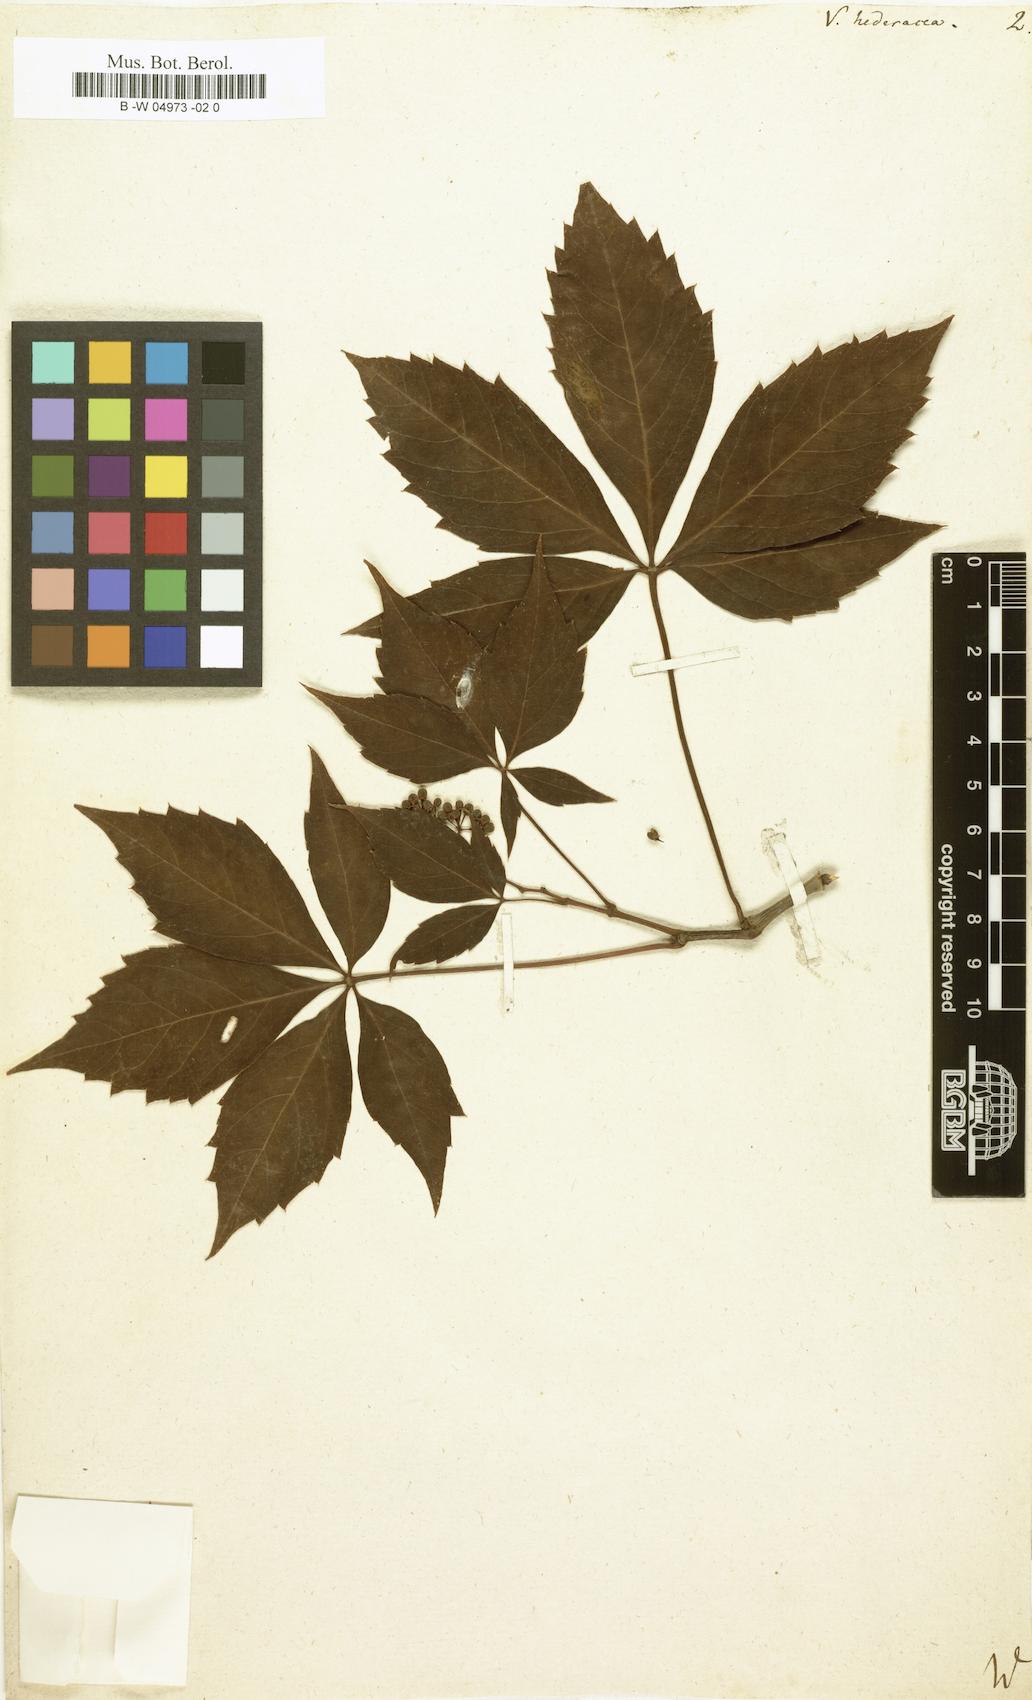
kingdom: Plantae
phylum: Tracheophyta
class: Magnoliopsida
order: Vitales
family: Vitaceae
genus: Parthenocissus
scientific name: Parthenocissus quinquefolia
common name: Virginia-creeper
